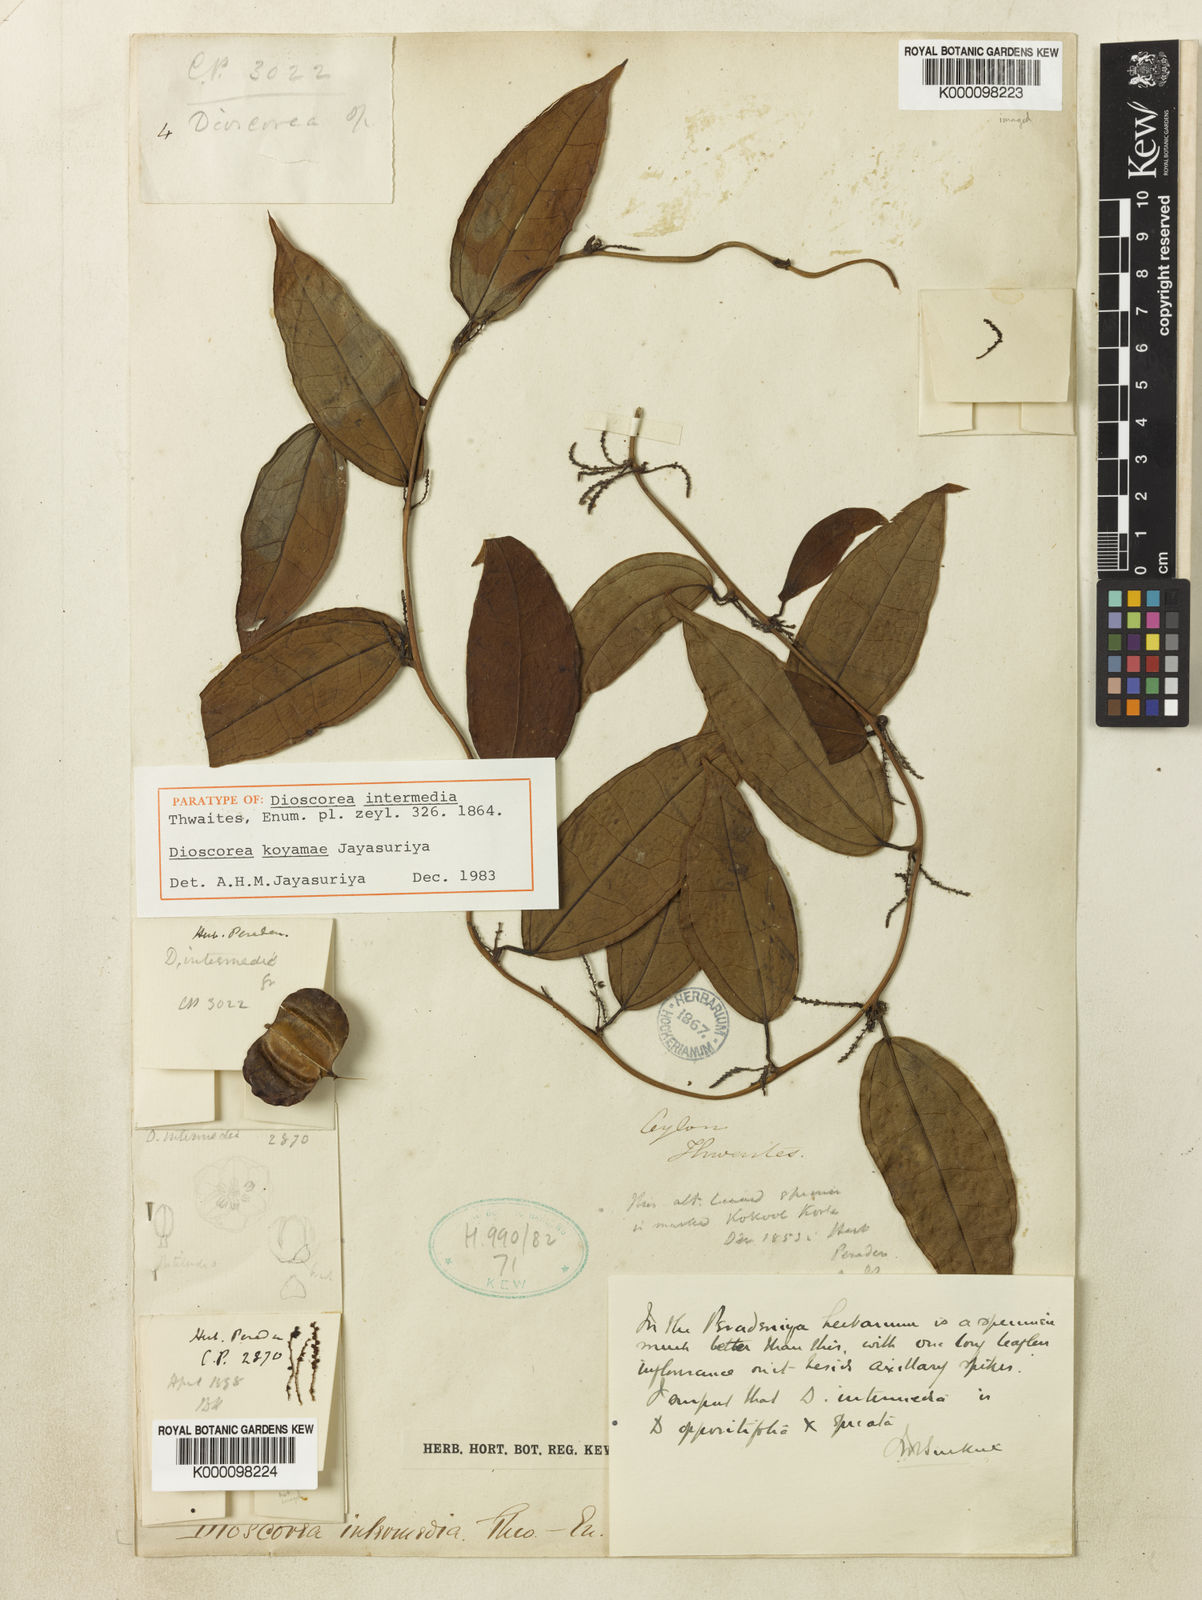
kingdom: Plantae
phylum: Tracheophyta
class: Liliopsida
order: Dioscoreales
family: Dioscoreaceae
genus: Dioscorea
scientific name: Dioscorea intermedia
